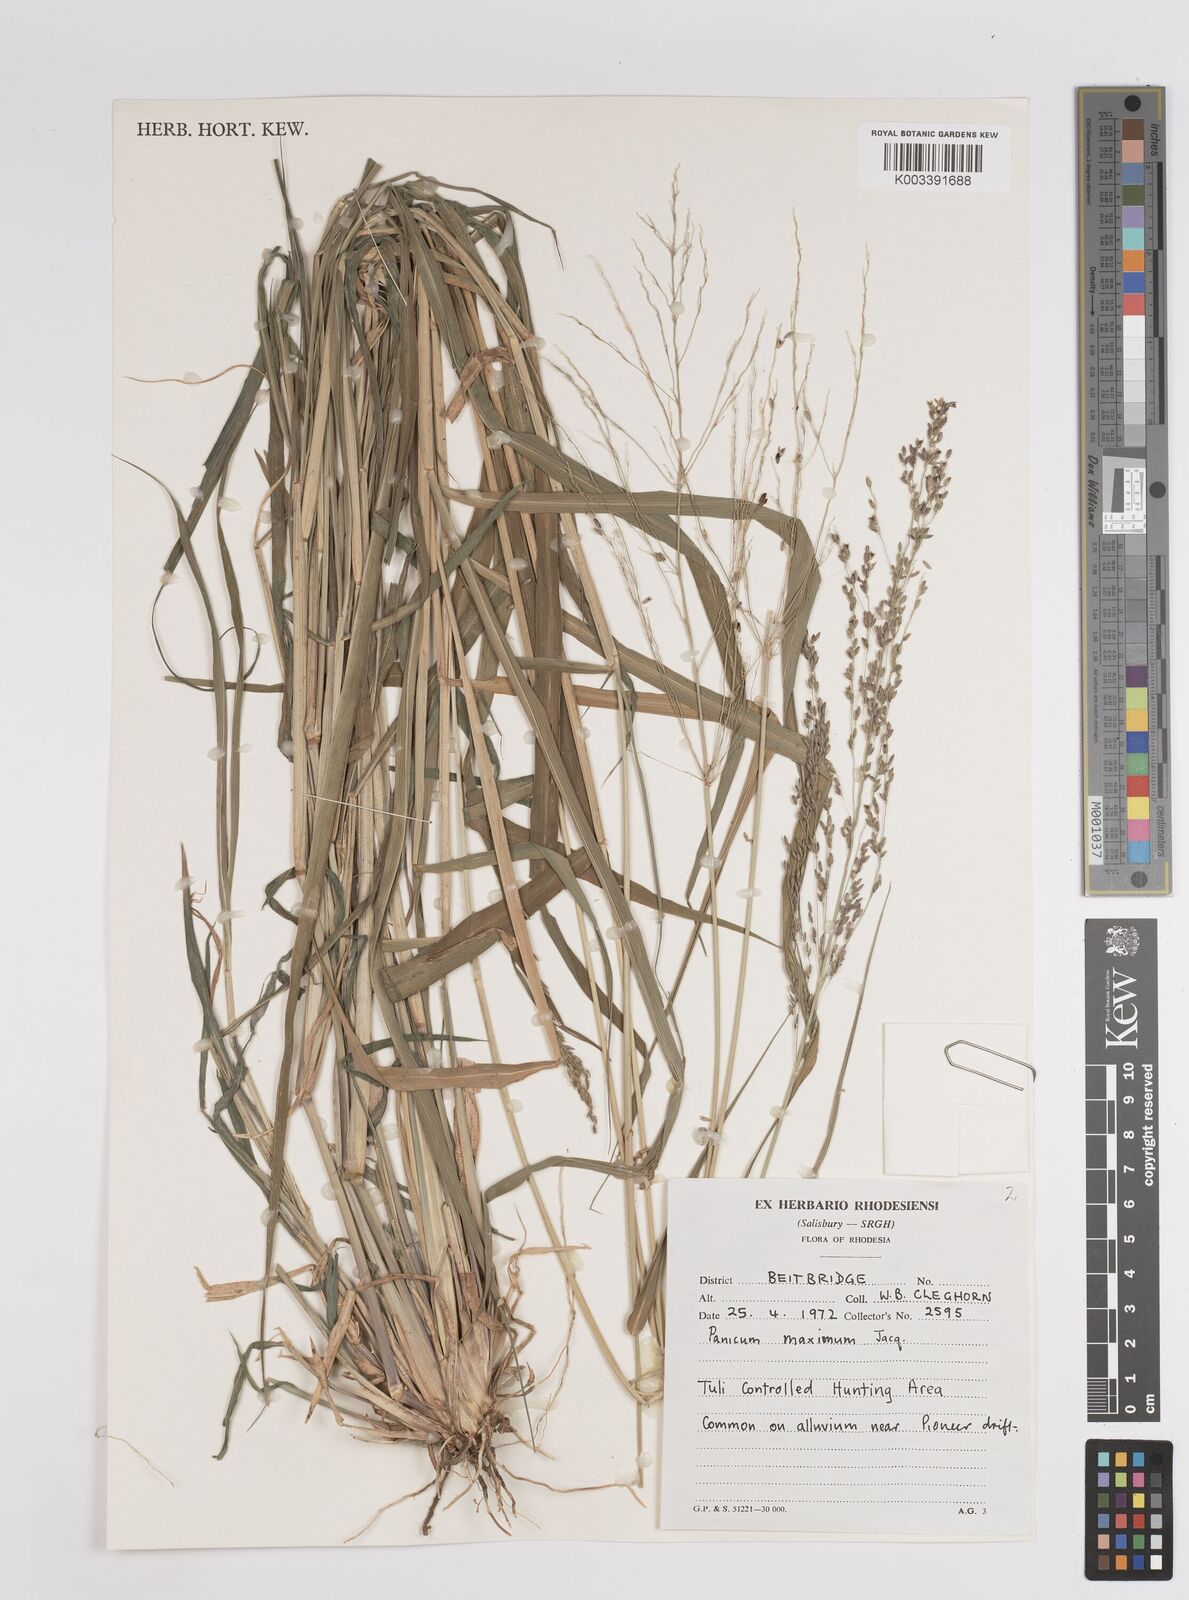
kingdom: Plantae
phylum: Tracheophyta
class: Liliopsida
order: Poales
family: Poaceae
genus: Megathyrsus
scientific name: Megathyrsus maximus
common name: Guineagrass
